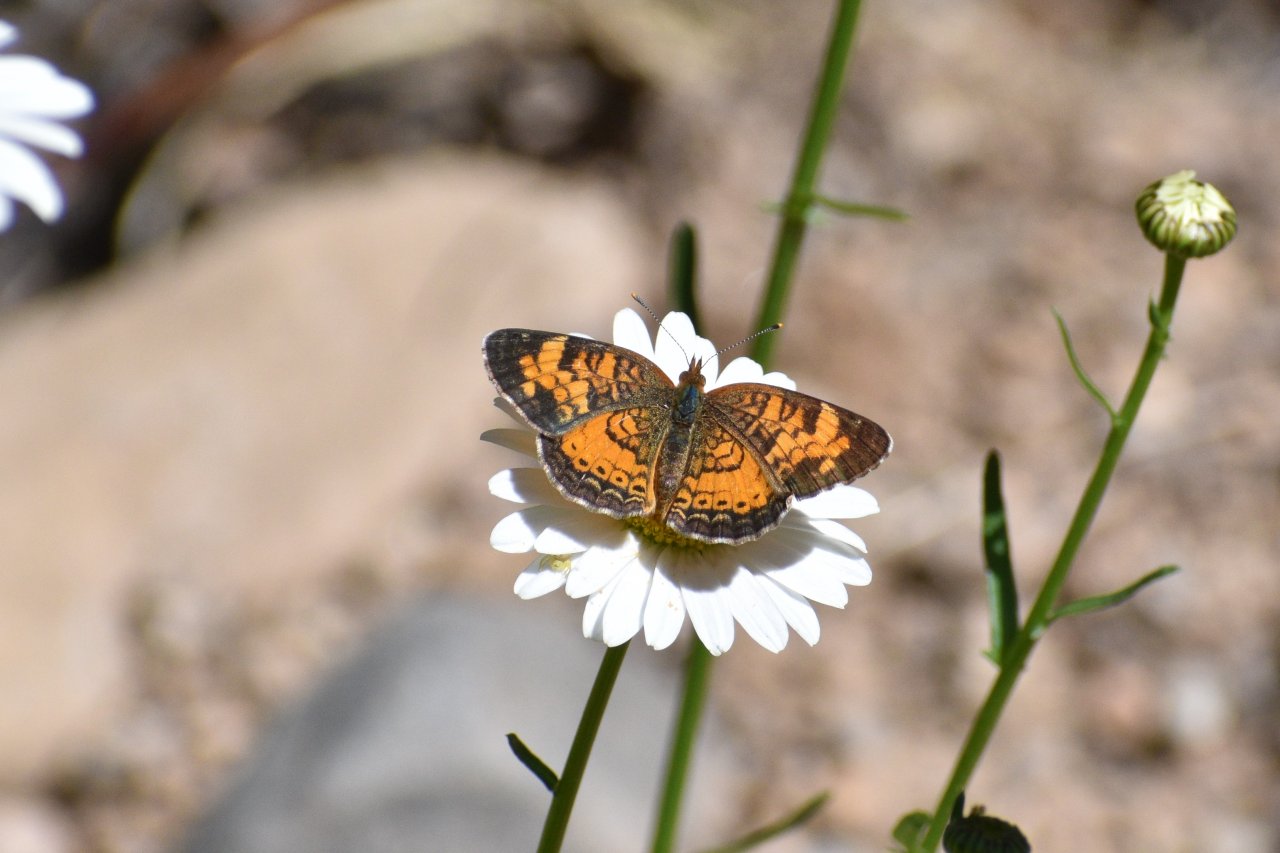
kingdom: Animalia
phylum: Arthropoda
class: Insecta
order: Lepidoptera
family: Nymphalidae
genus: Phyciodes
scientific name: Phyciodes tharos
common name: Northern Crescent
